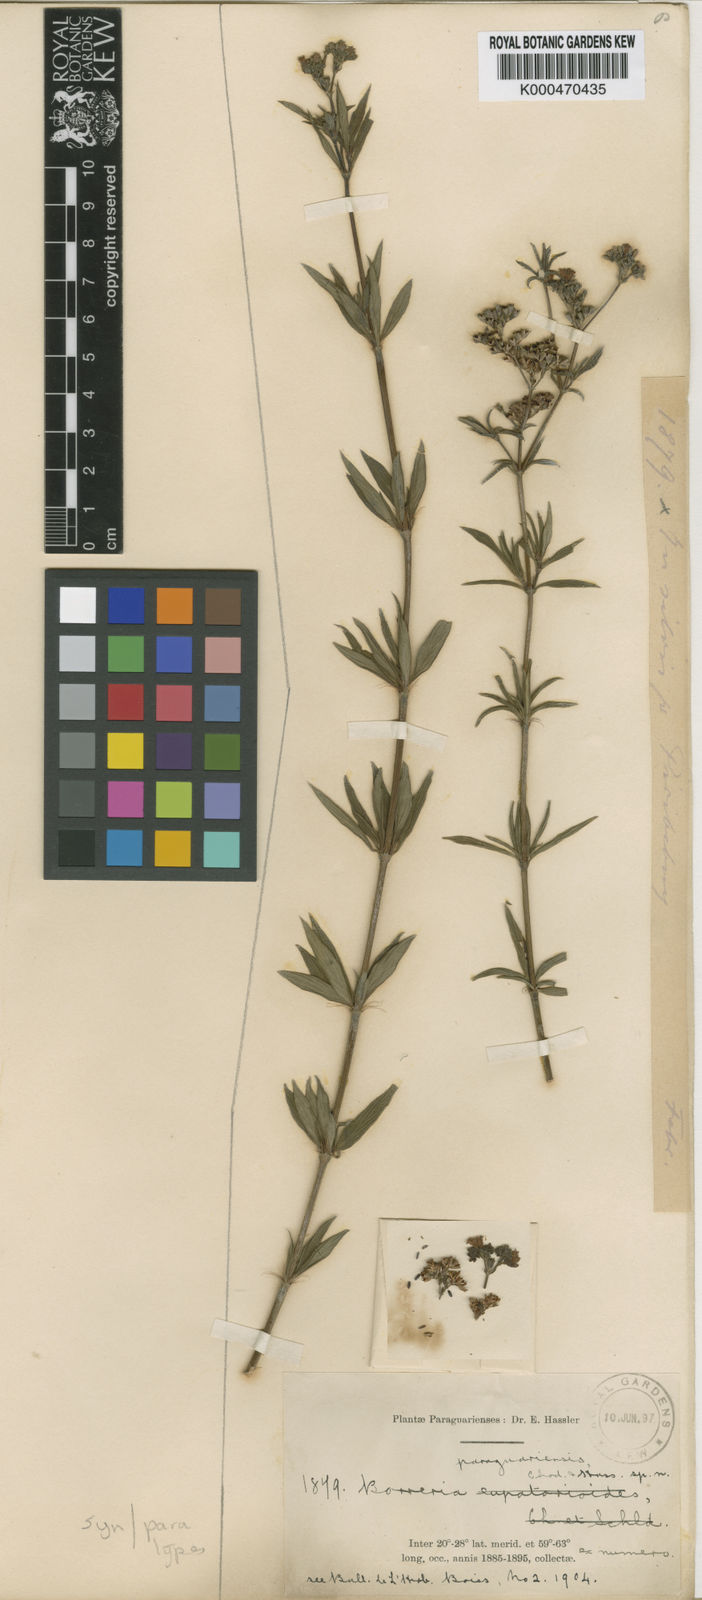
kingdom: Plantae
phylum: Tracheophyta
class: Magnoliopsida
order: Gentianales
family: Rubiaceae
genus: Galianthe
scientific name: Galianthe laxa
